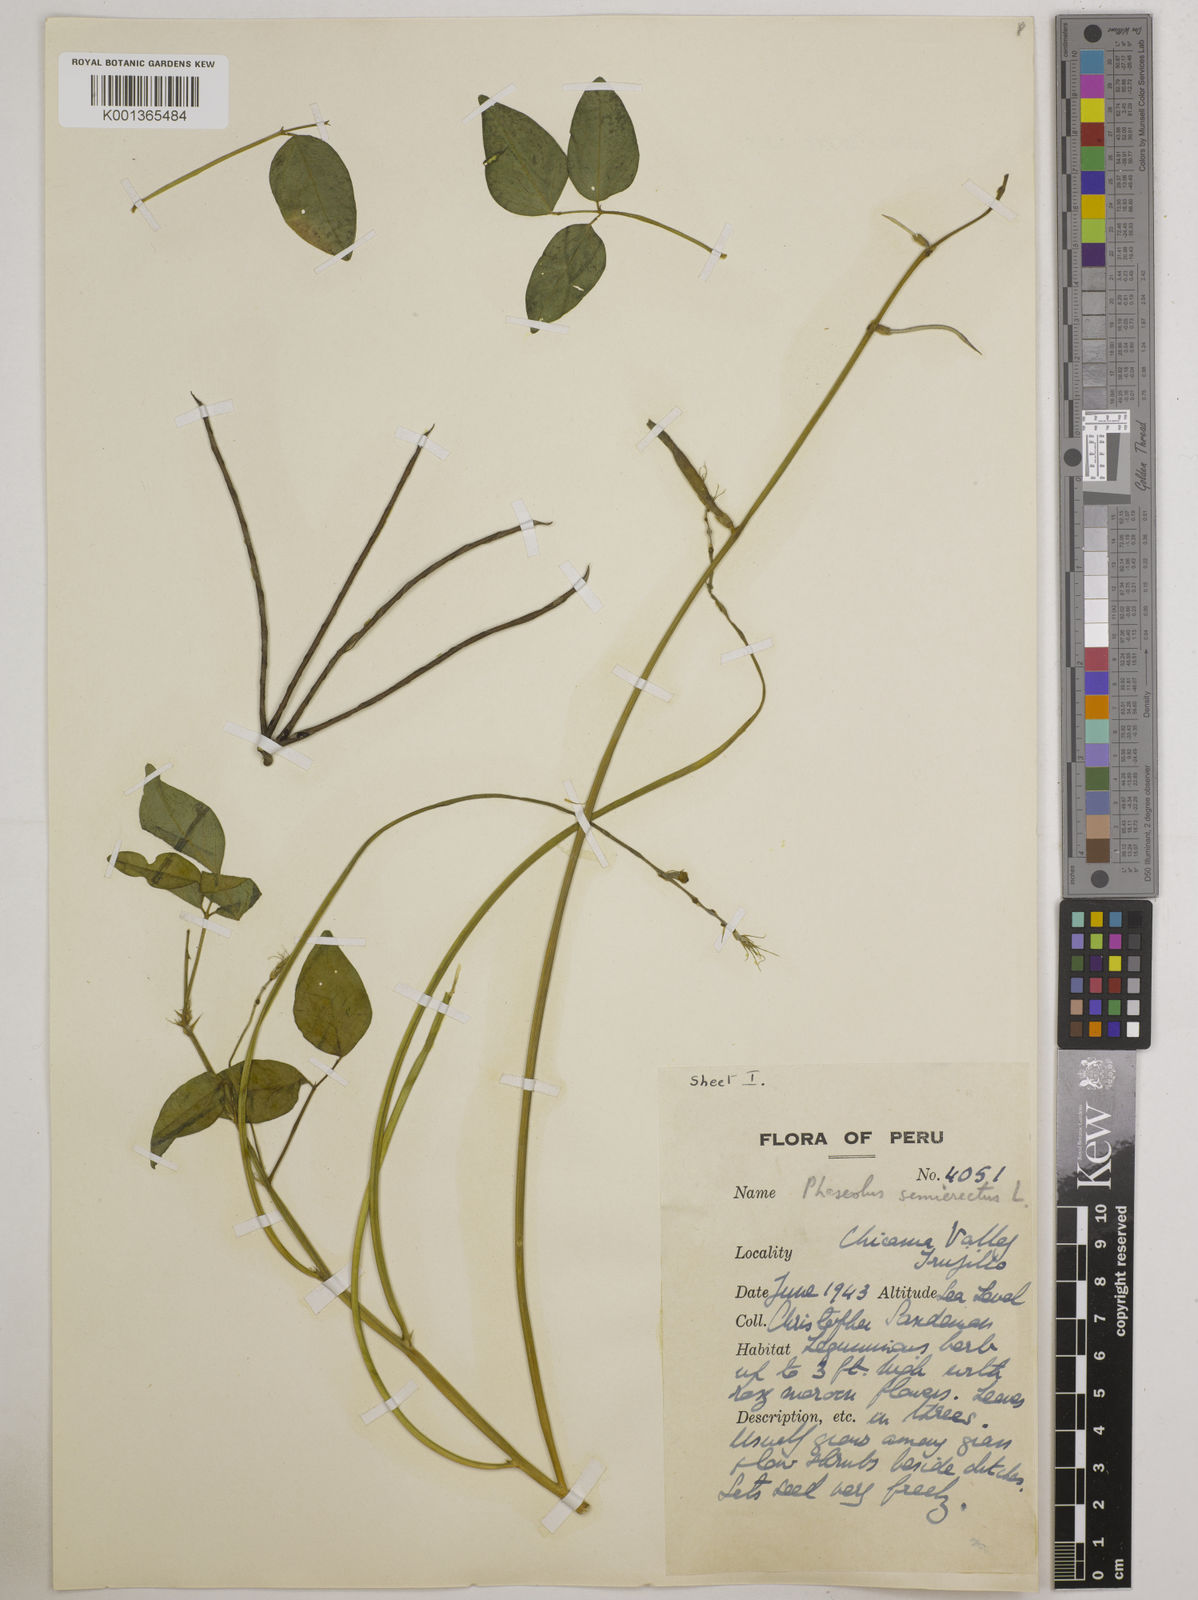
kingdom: Plantae
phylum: Tracheophyta
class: Magnoliopsida
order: Fabales
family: Fabaceae
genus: Macroptilium
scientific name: Macroptilium lathyroides
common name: Wild bushbean
